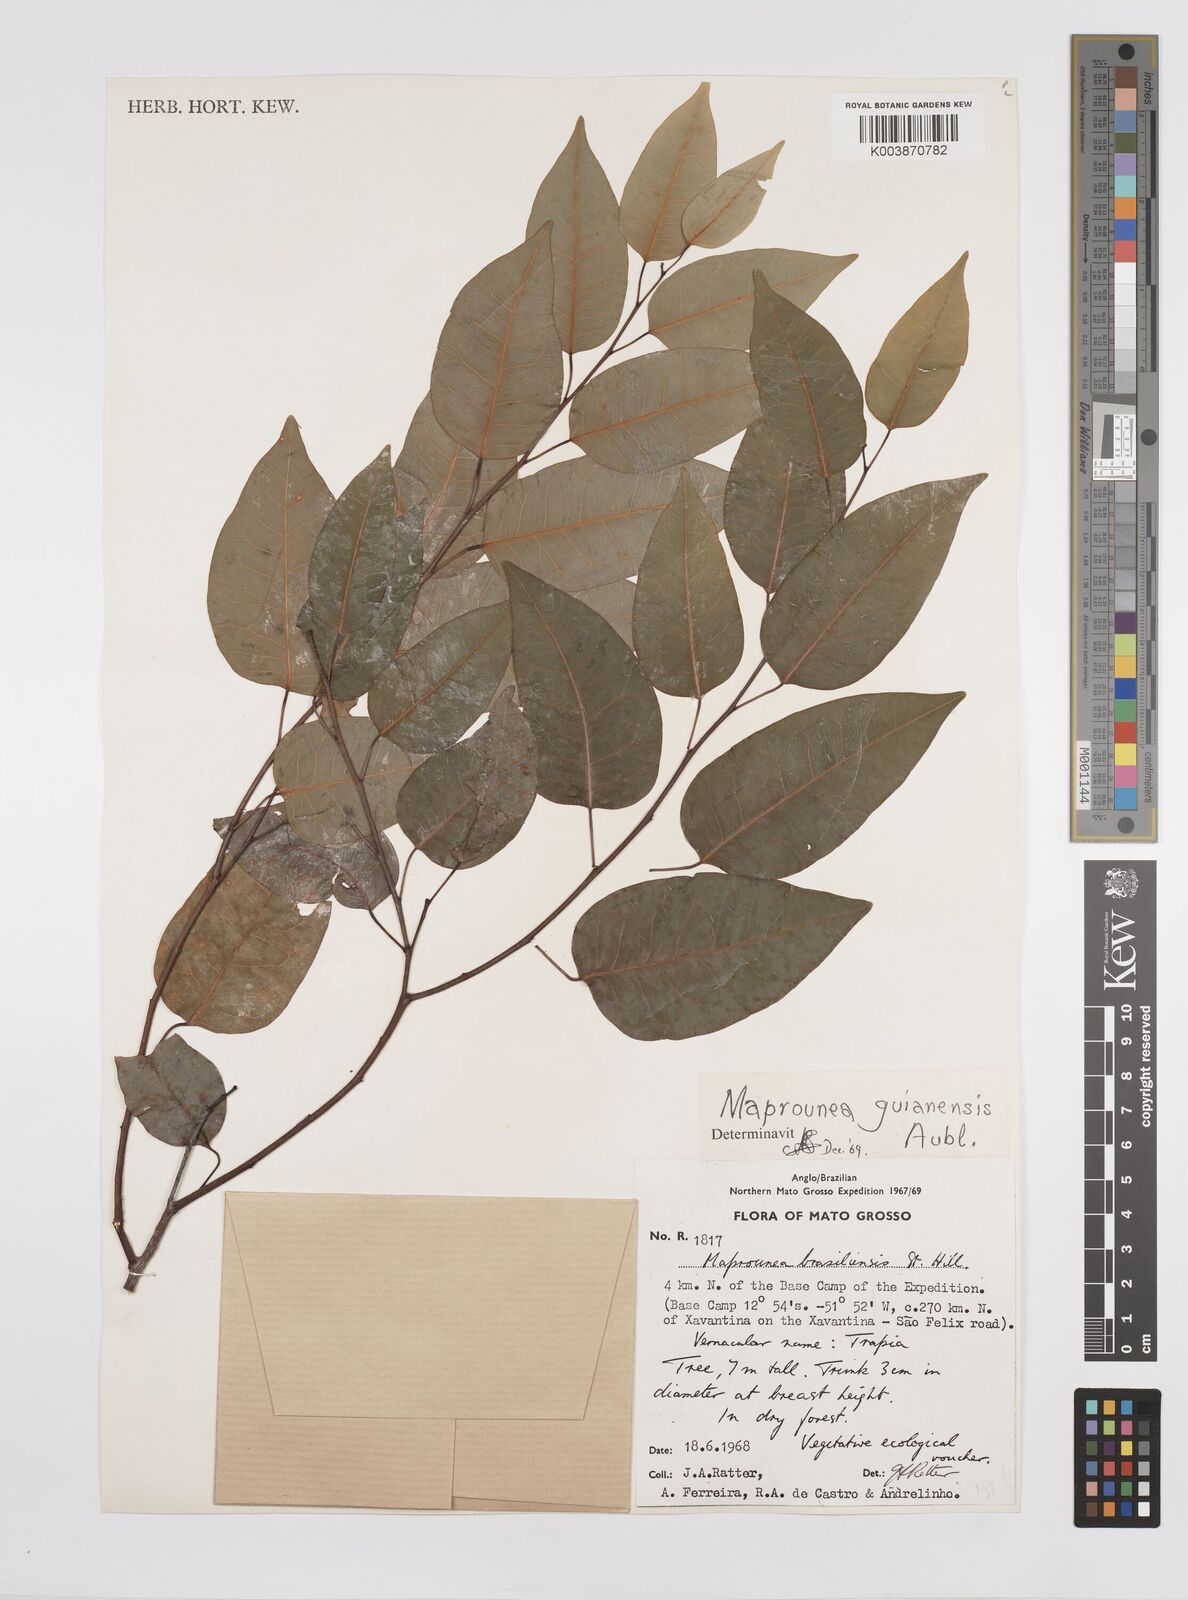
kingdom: Plantae
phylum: Tracheophyta
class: Magnoliopsida
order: Malpighiales
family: Euphorbiaceae
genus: Maprounea
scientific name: Maprounea guianensis
